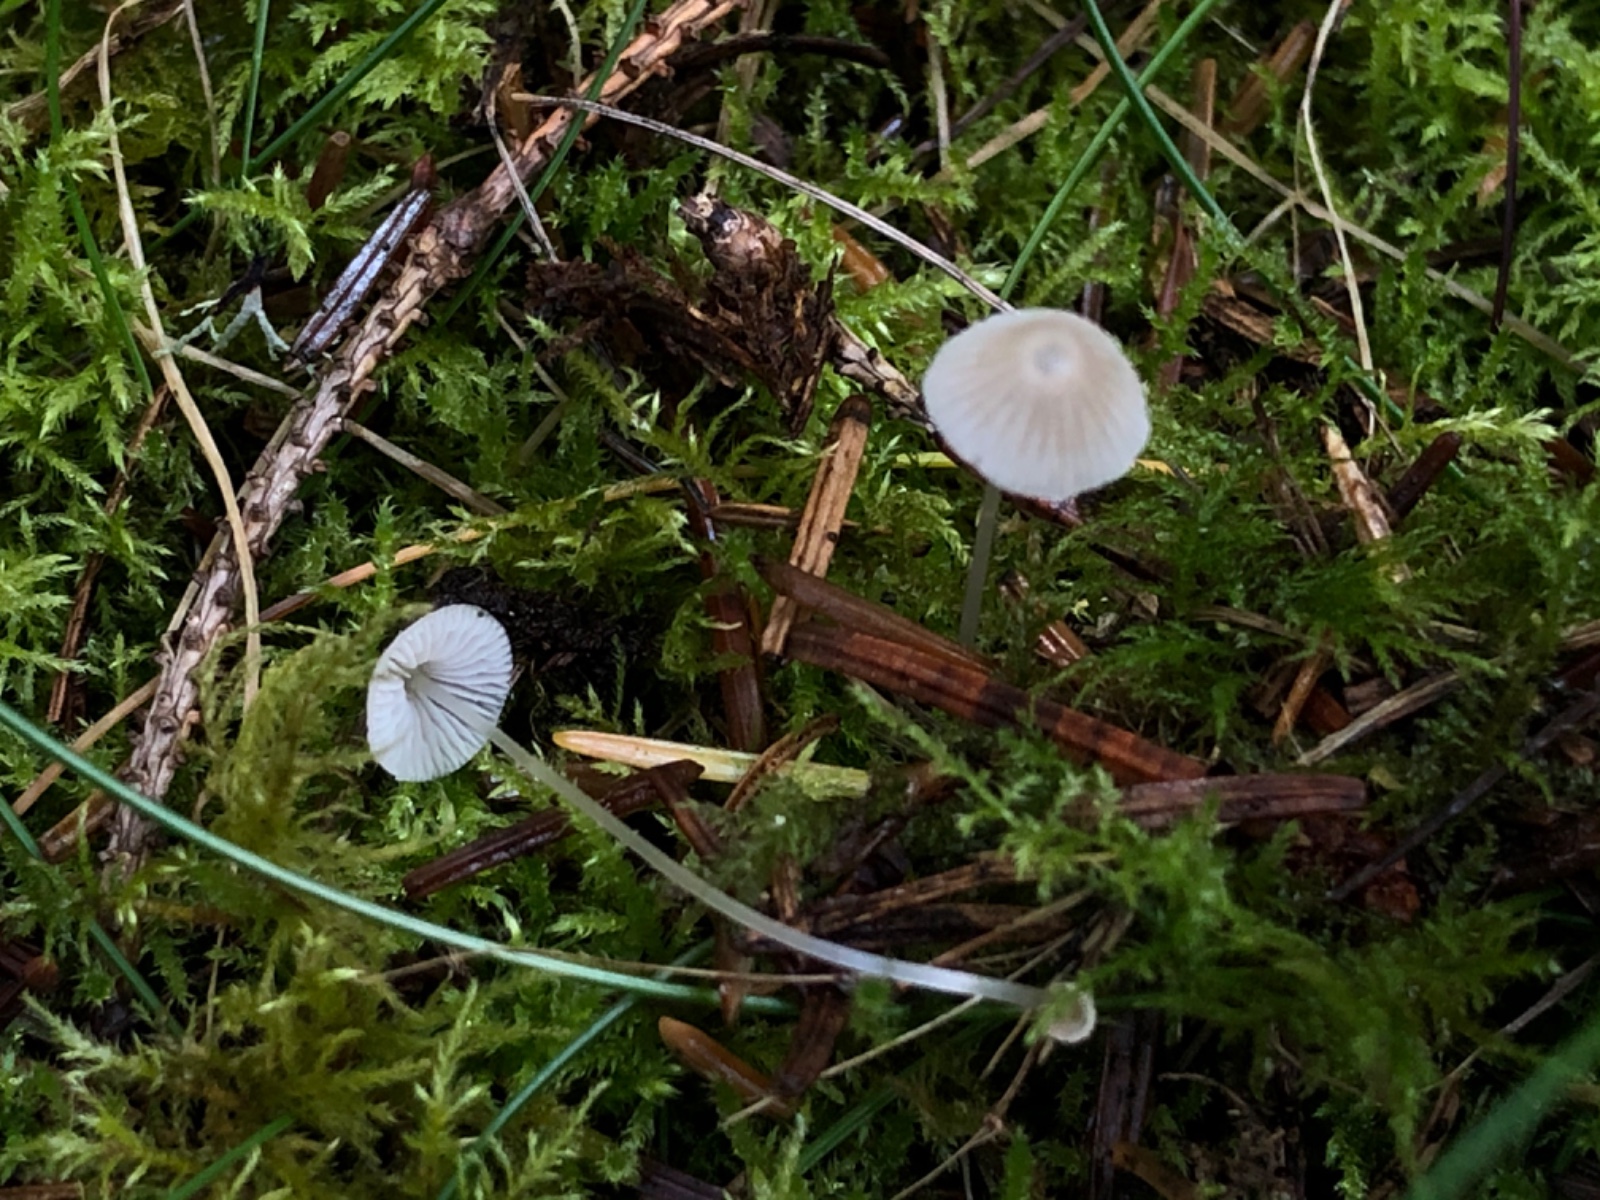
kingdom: Fungi
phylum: Basidiomycota
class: Agaricomycetes
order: Agaricales
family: Mycenaceae
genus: Mycena
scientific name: Mycena stylobates
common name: fureskivet huesvamp
